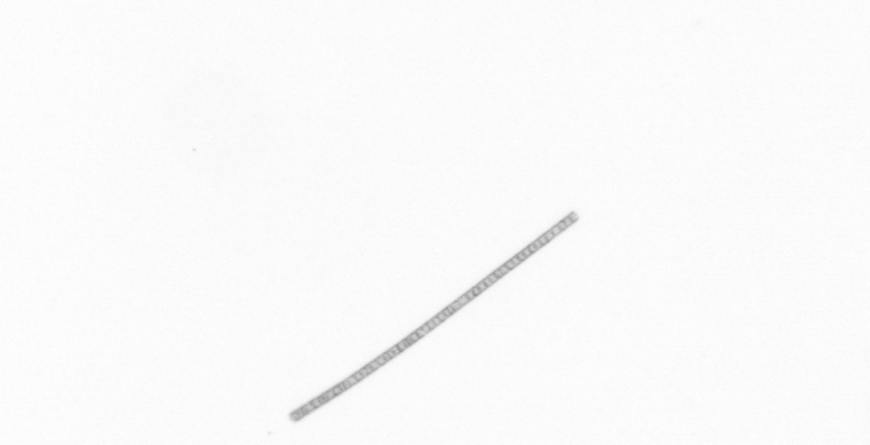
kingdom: Chromista
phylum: Ochrophyta
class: Bacillariophyceae
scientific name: Bacillariophyceae
